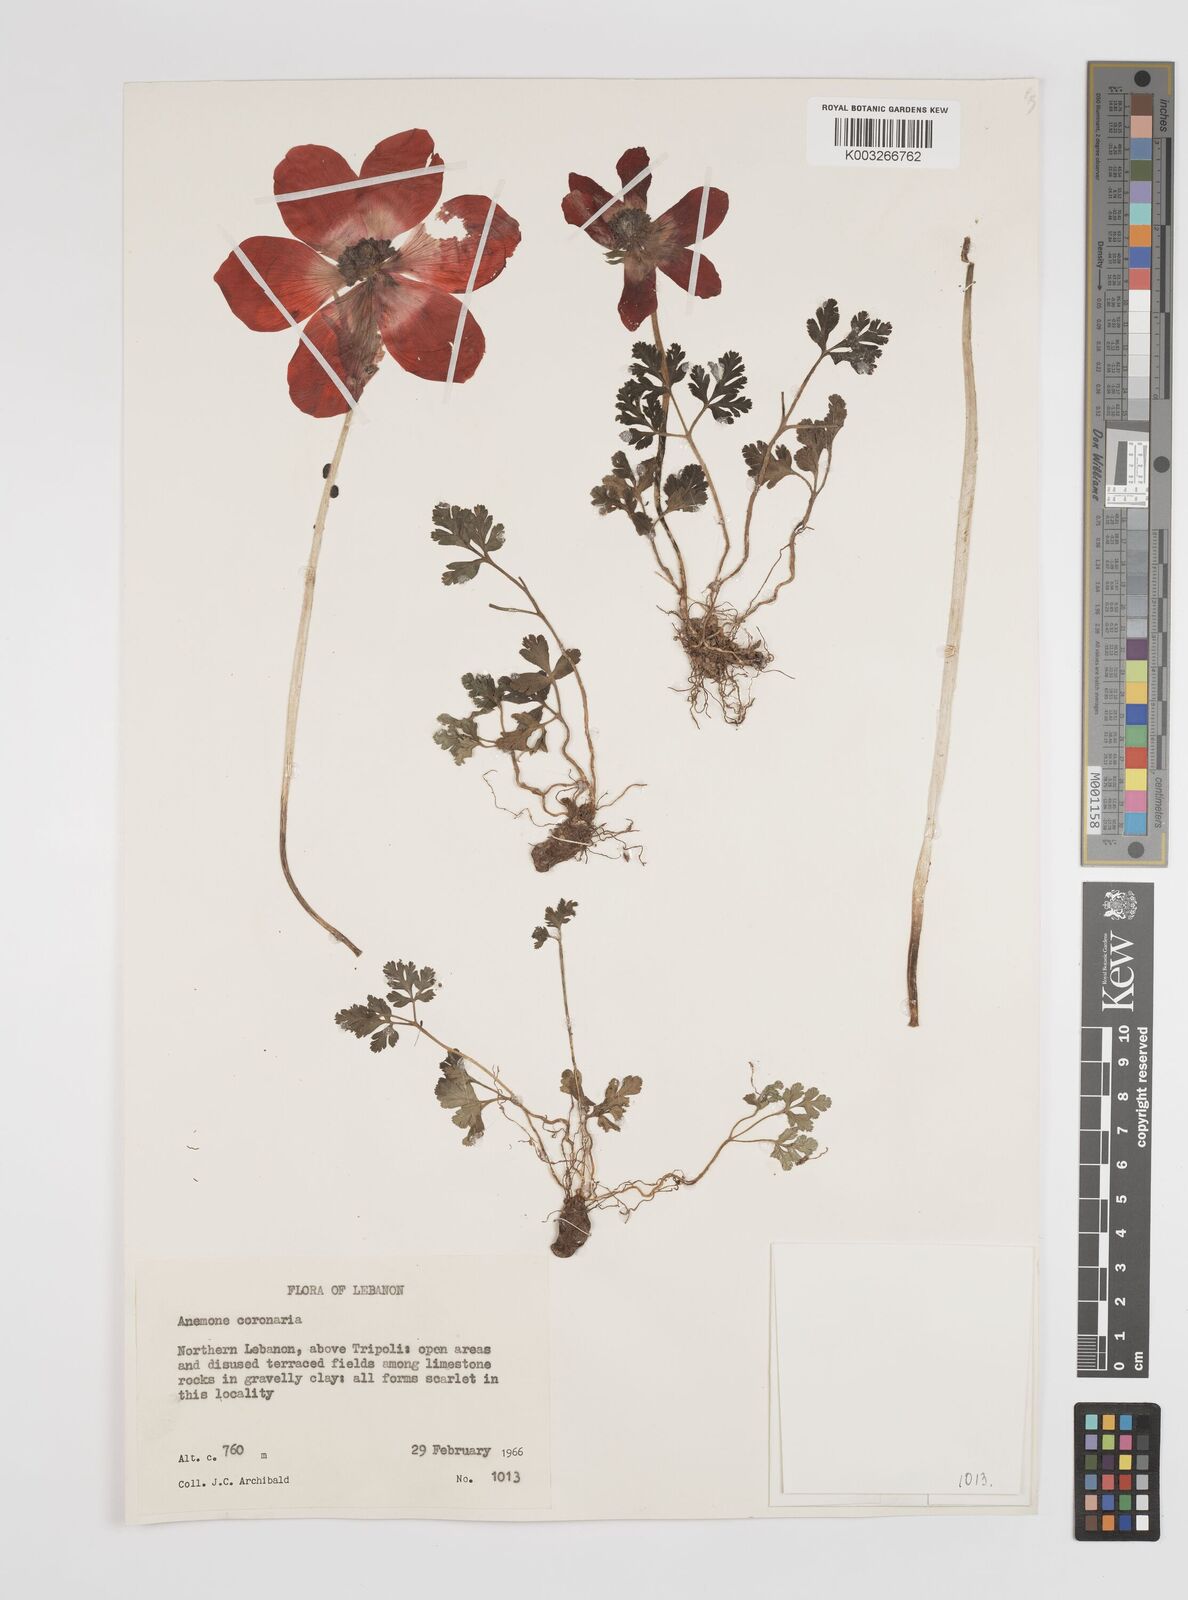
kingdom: Plantae
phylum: Tracheophyta
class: Magnoliopsida
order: Ranunculales
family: Ranunculaceae
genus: Anemone
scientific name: Anemone coronaria
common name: Poppy anemone
